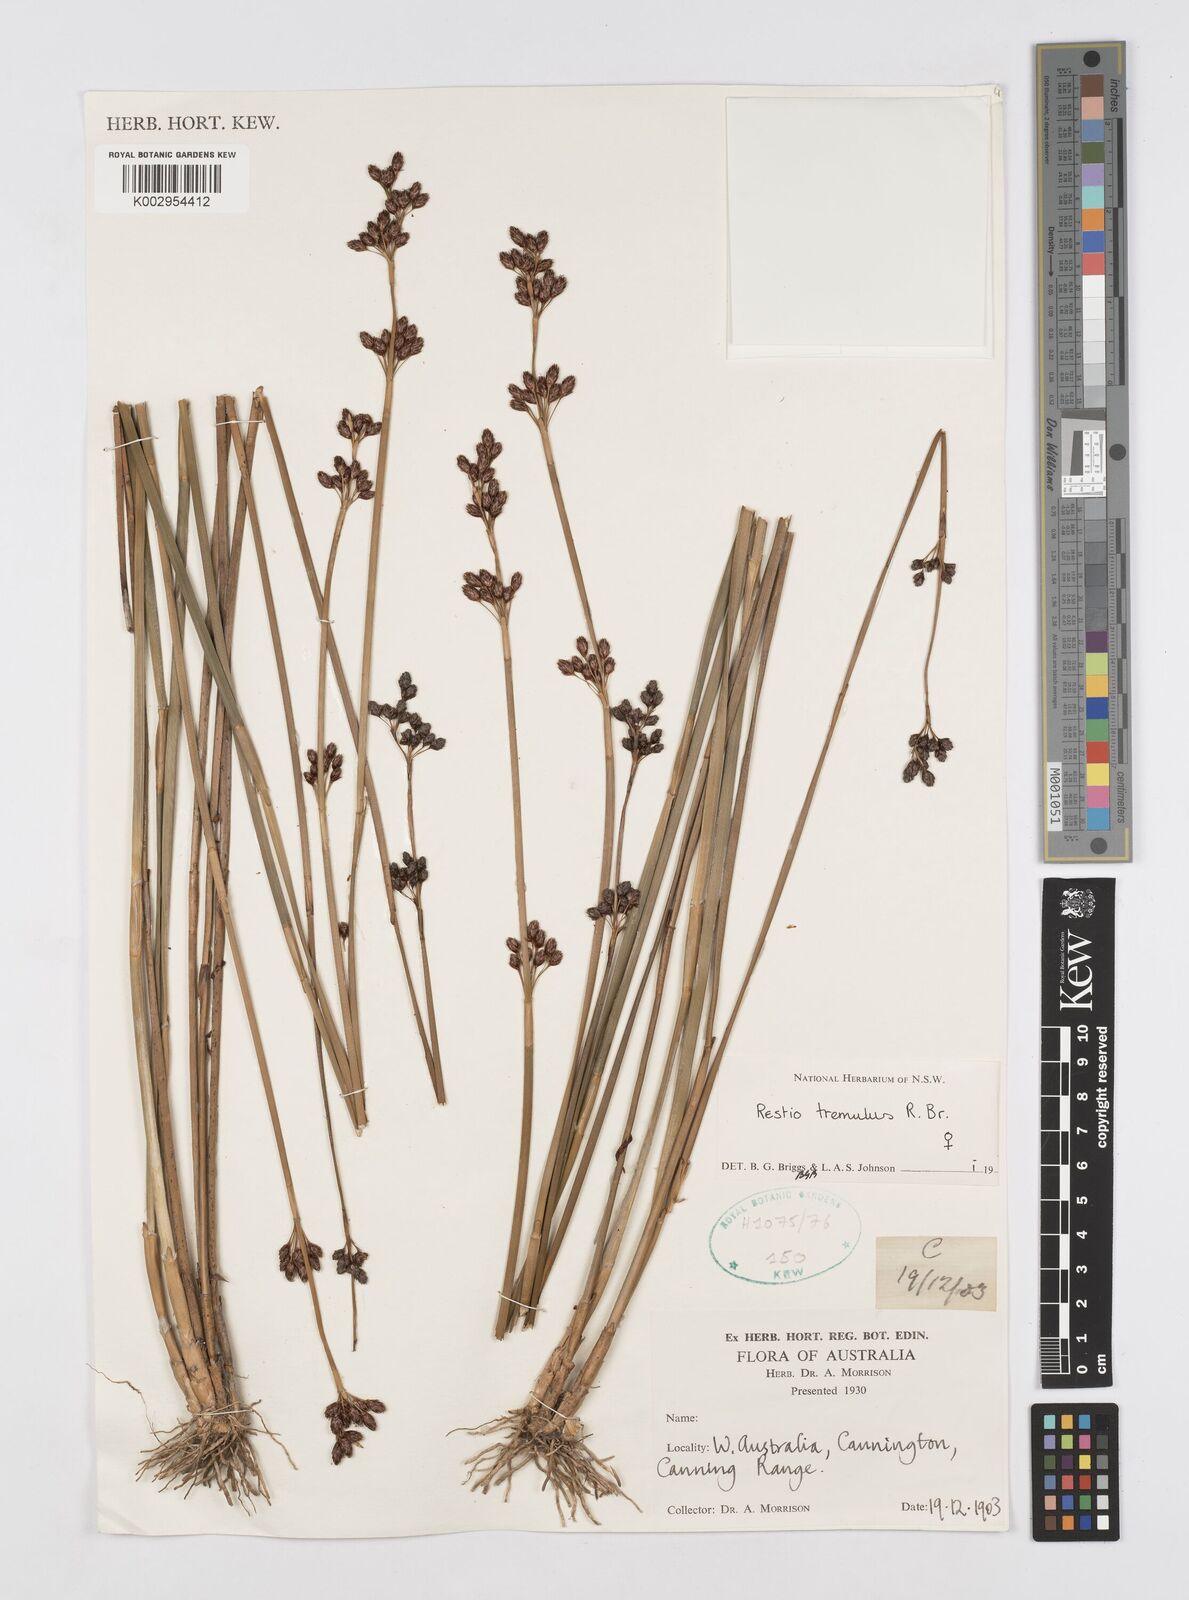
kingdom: Plantae
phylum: Tracheophyta
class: Liliopsida
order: Poales
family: Restionaceae
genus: Tremulina
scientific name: Tremulina tremula
